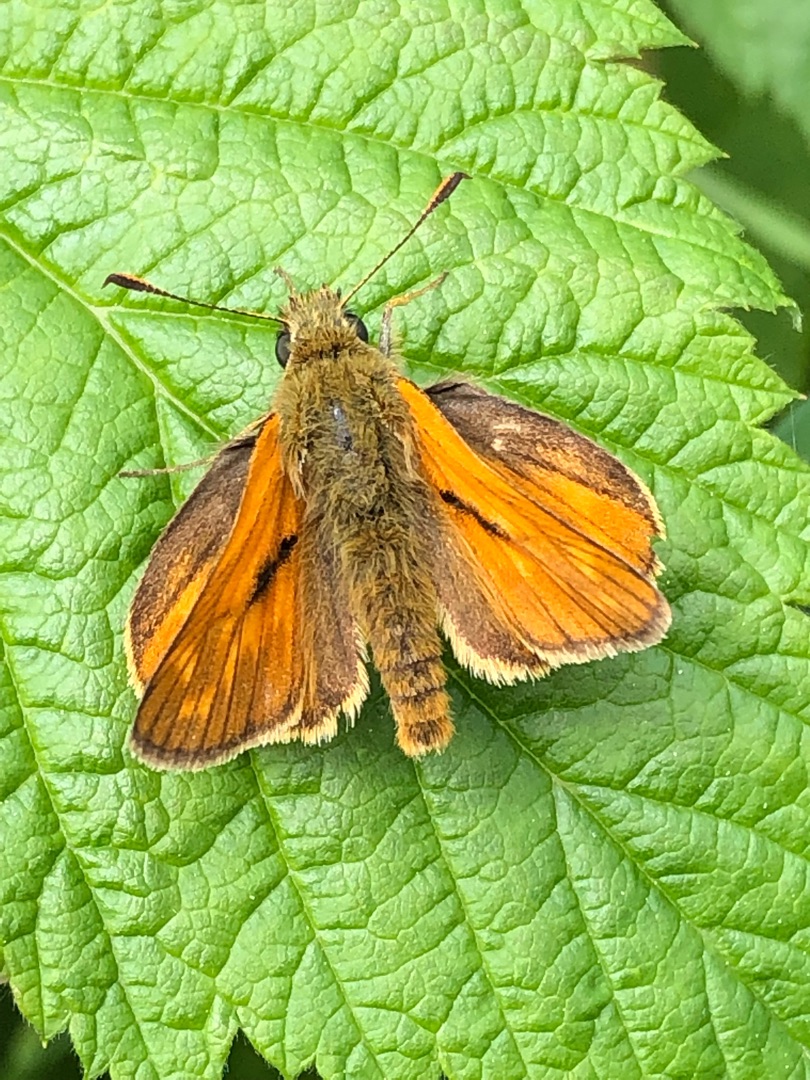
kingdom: Animalia
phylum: Arthropoda
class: Insecta
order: Lepidoptera
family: Hesperiidae
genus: Ochlodes
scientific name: Ochlodes venata
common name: Stor bredpande
